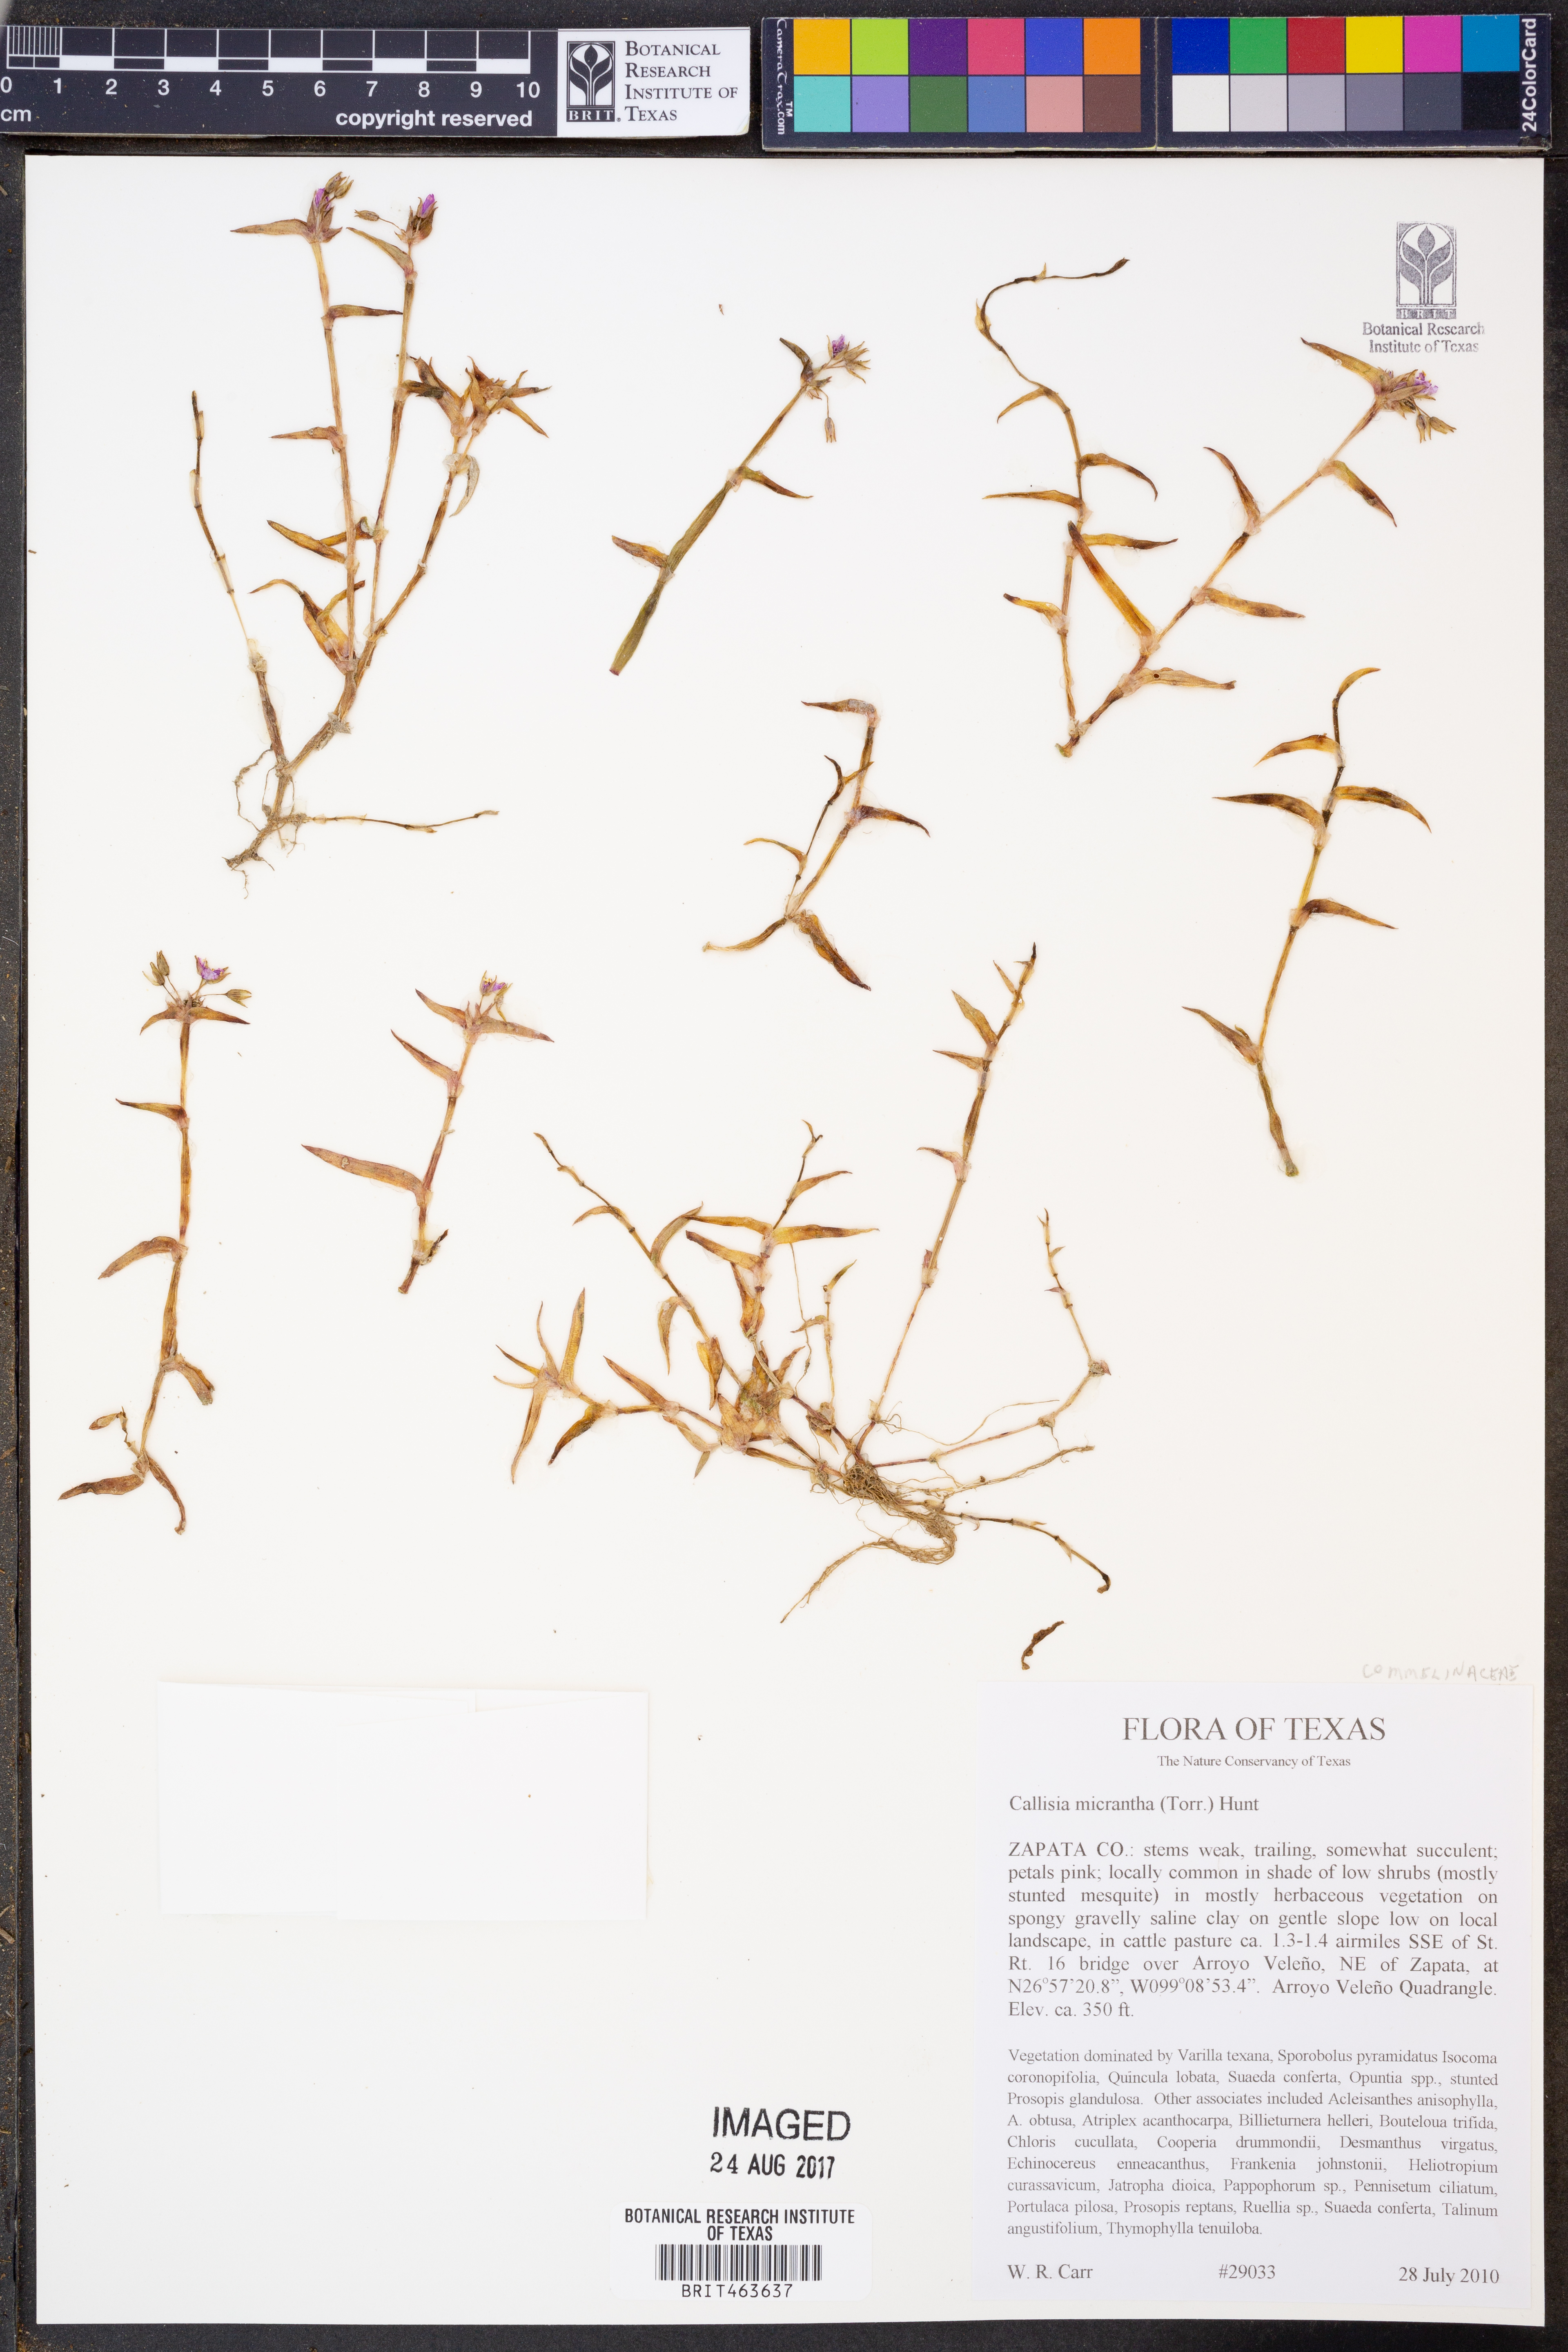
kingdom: Plantae
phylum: Tracheophyta
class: Liliopsida
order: Commelinales
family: Commelinaceae
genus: Callisia
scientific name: Callisia micrantha
